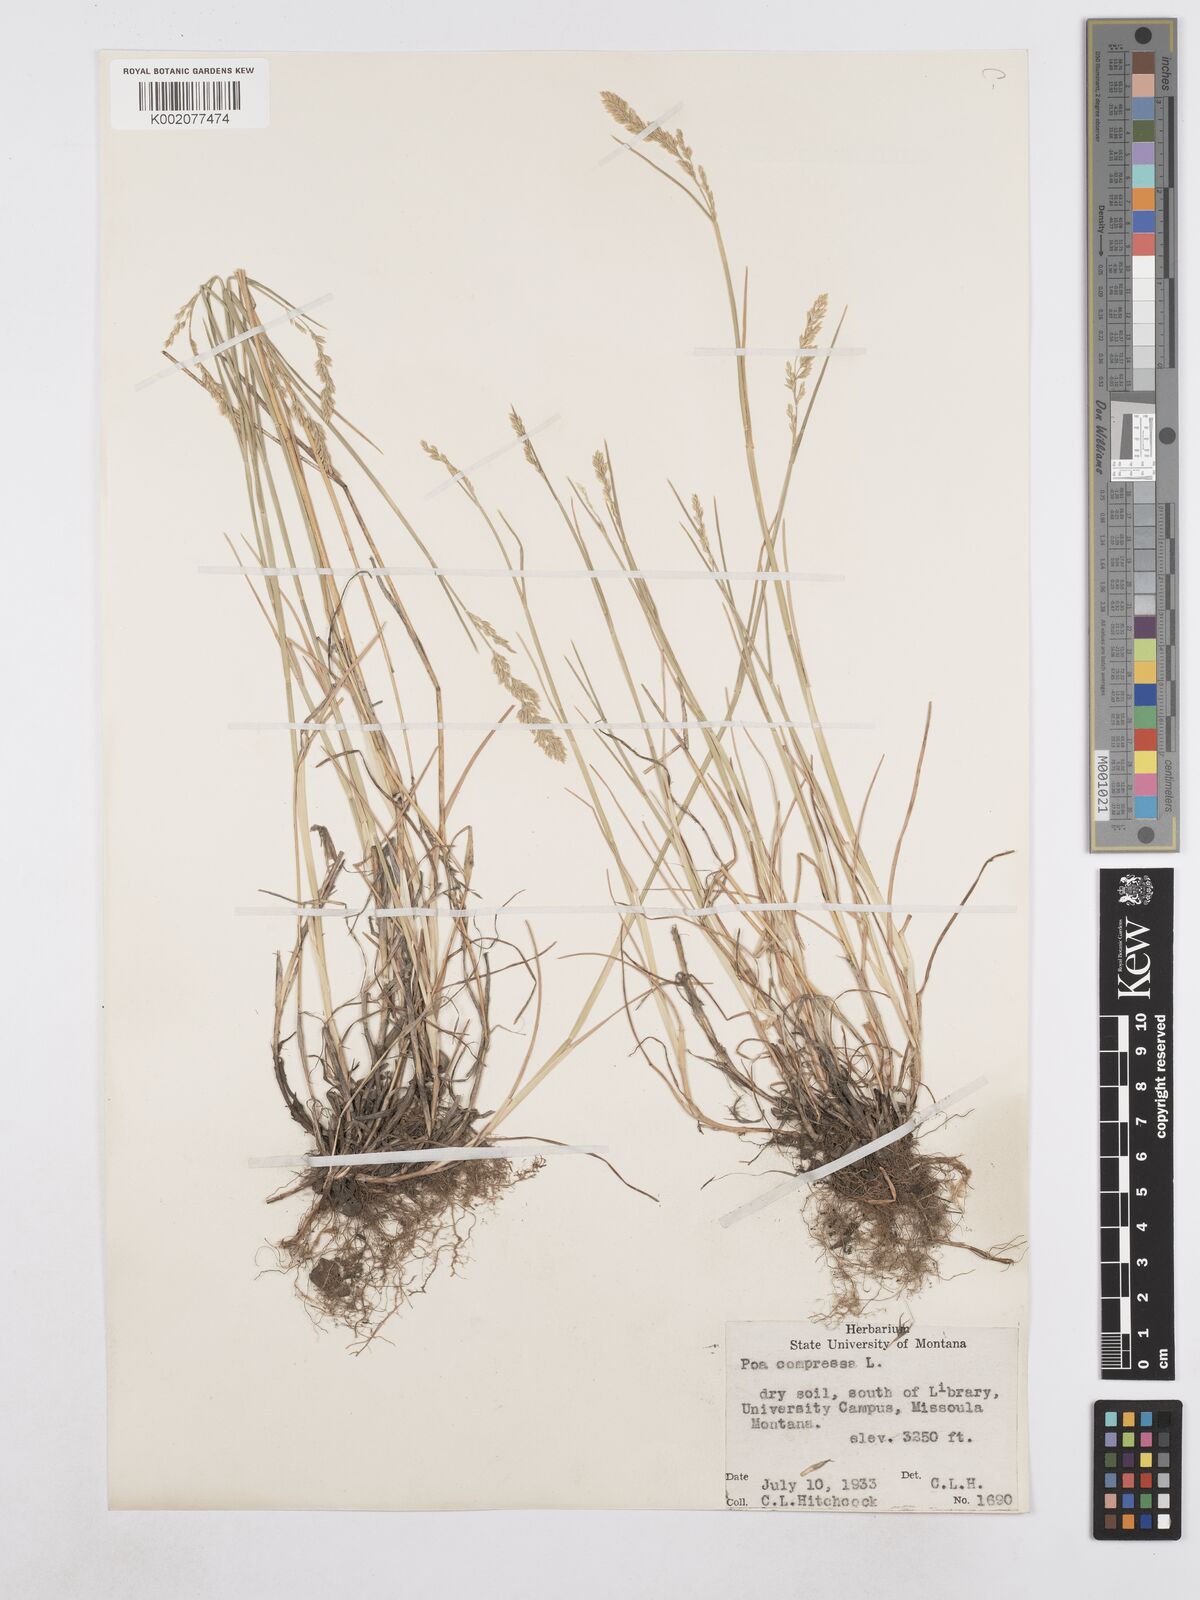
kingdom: Plantae
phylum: Tracheophyta
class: Liliopsida
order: Poales
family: Poaceae
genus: Poa
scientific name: Poa compressa
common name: Canada bluegrass
